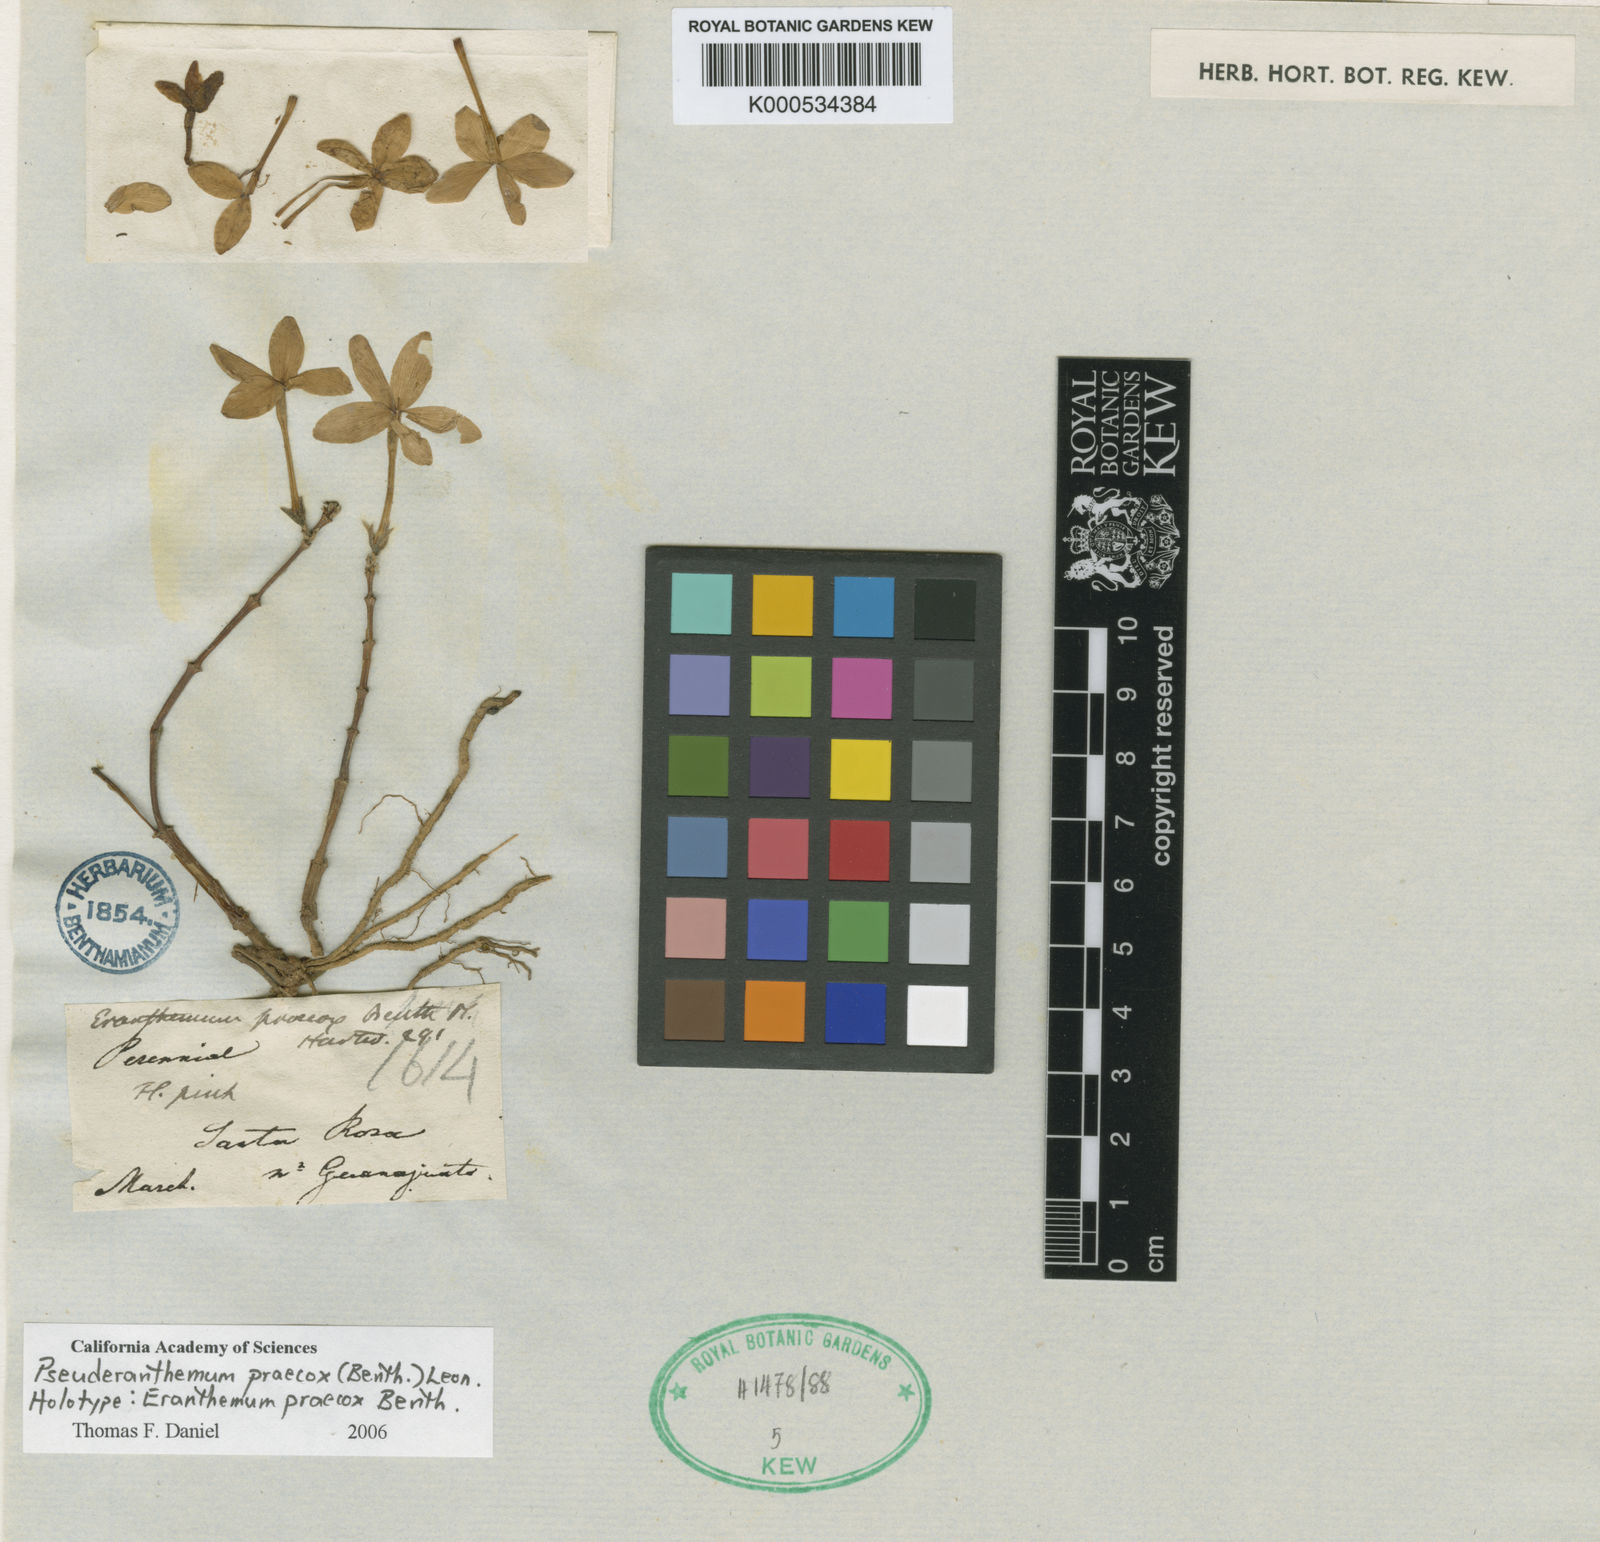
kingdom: Plantae
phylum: Tracheophyta
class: Magnoliopsida
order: Lamiales
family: Acanthaceae
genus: Pseuderanthemum
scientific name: Pseuderanthemum praecox
